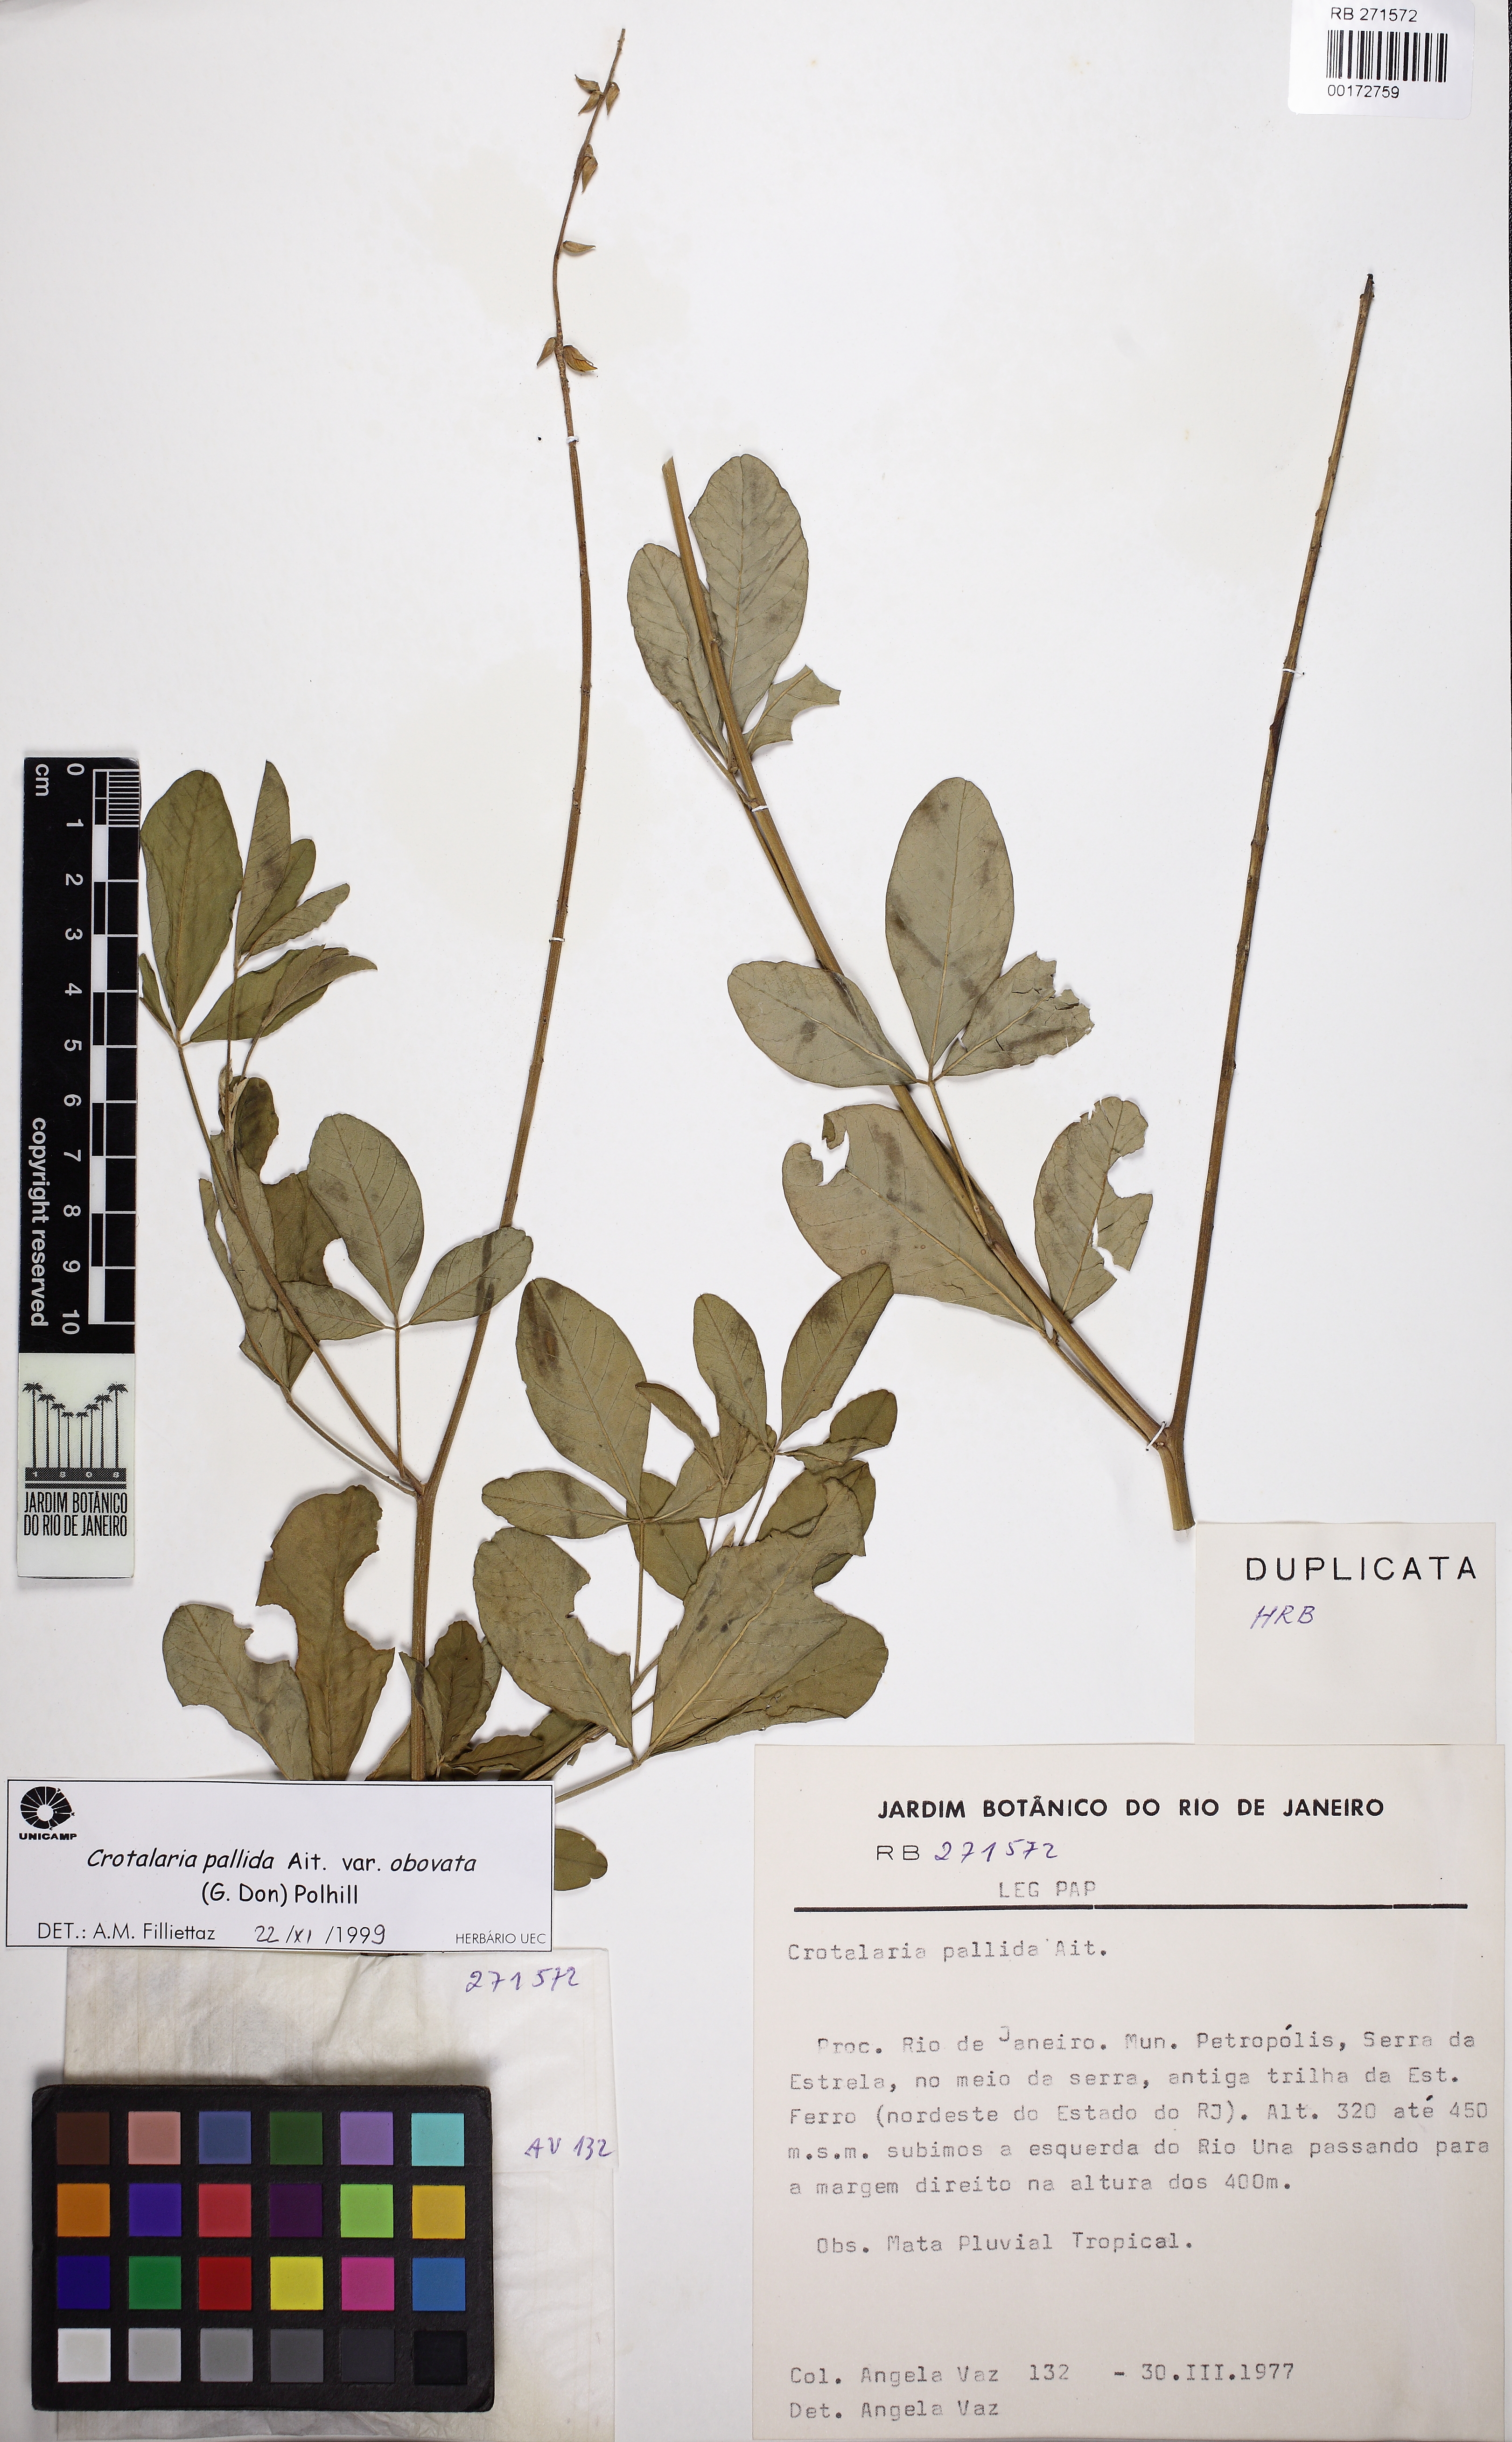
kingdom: Plantae
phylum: Tracheophyta
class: Magnoliopsida
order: Fabales
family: Fabaceae
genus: Crotalaria
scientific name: Crotalaria pallida
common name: Smooth rattlebox
